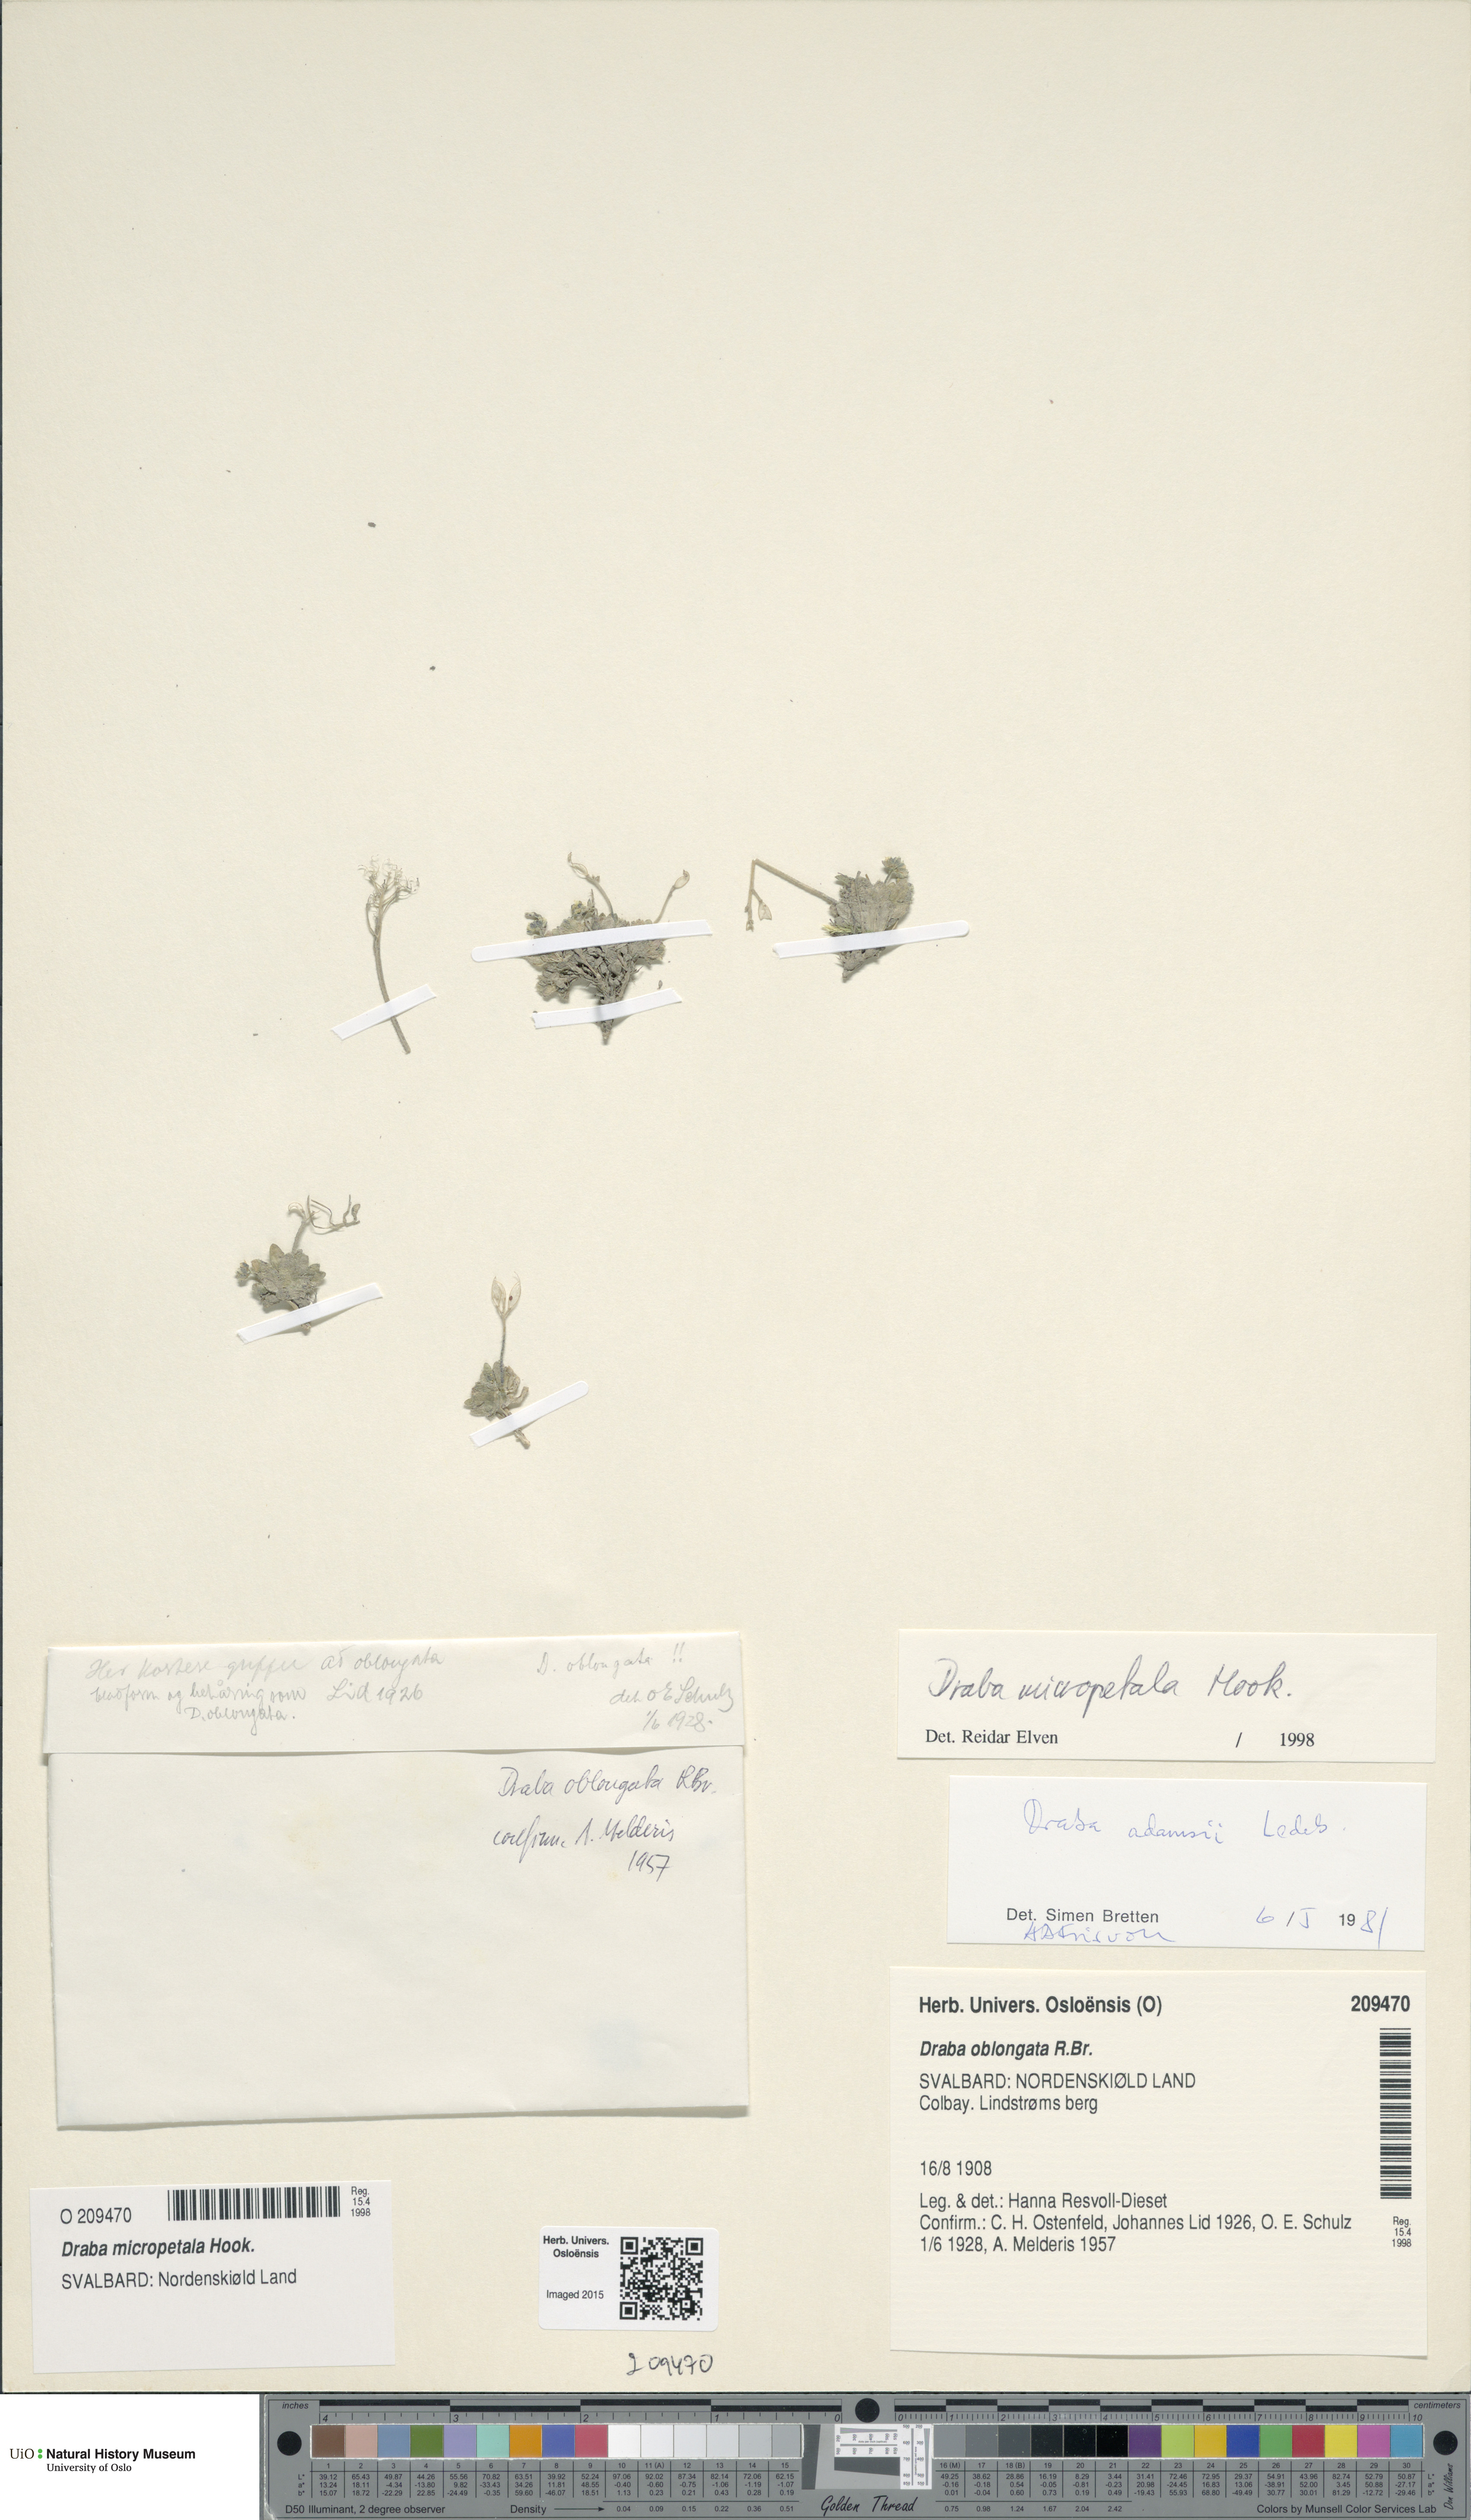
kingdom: Plantae
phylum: Tracheophyta
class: Magnoliopsida
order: Brassicales
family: Brassicaceae
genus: Draba
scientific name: Draba micropetala
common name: Small-flowered draba
